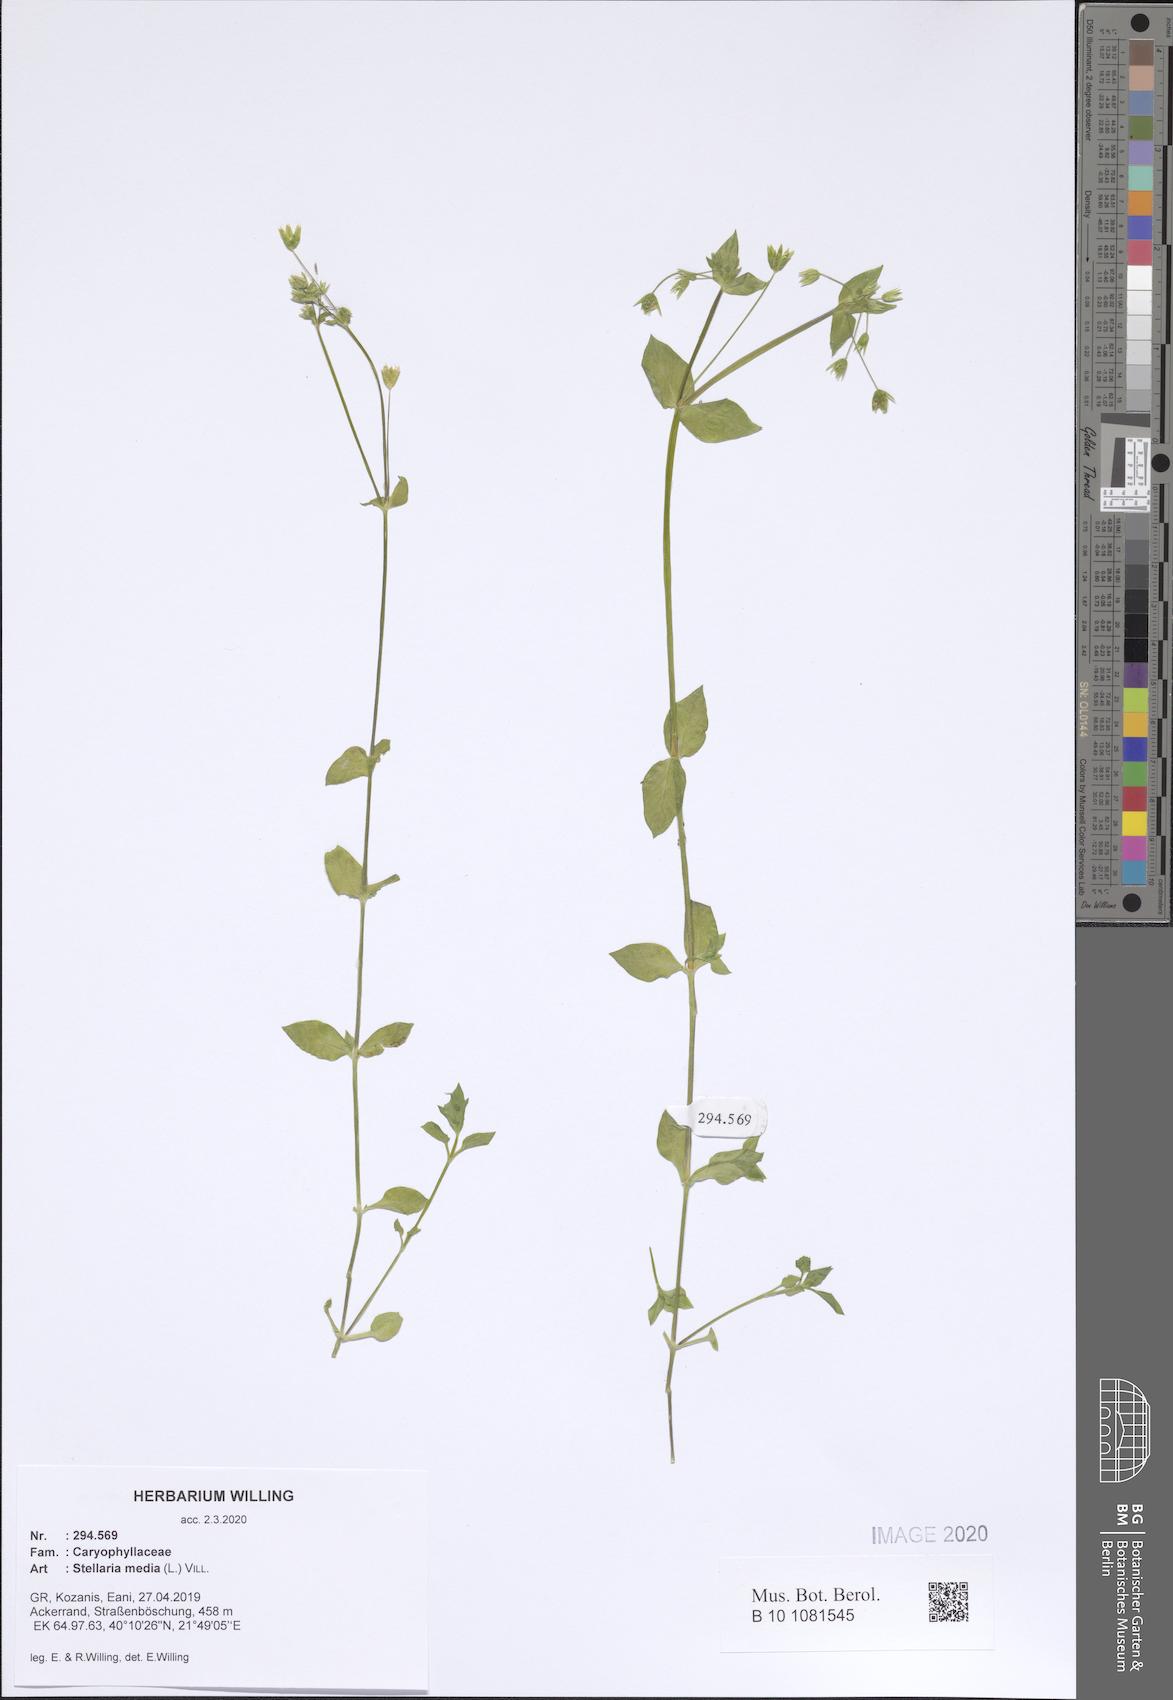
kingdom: Plantae
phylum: Tracheophyta
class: Magnoliopsida
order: Caryophyllales
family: Caryophyllaceae
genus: Stellaria
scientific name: Stellaria media
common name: Common chickweed
